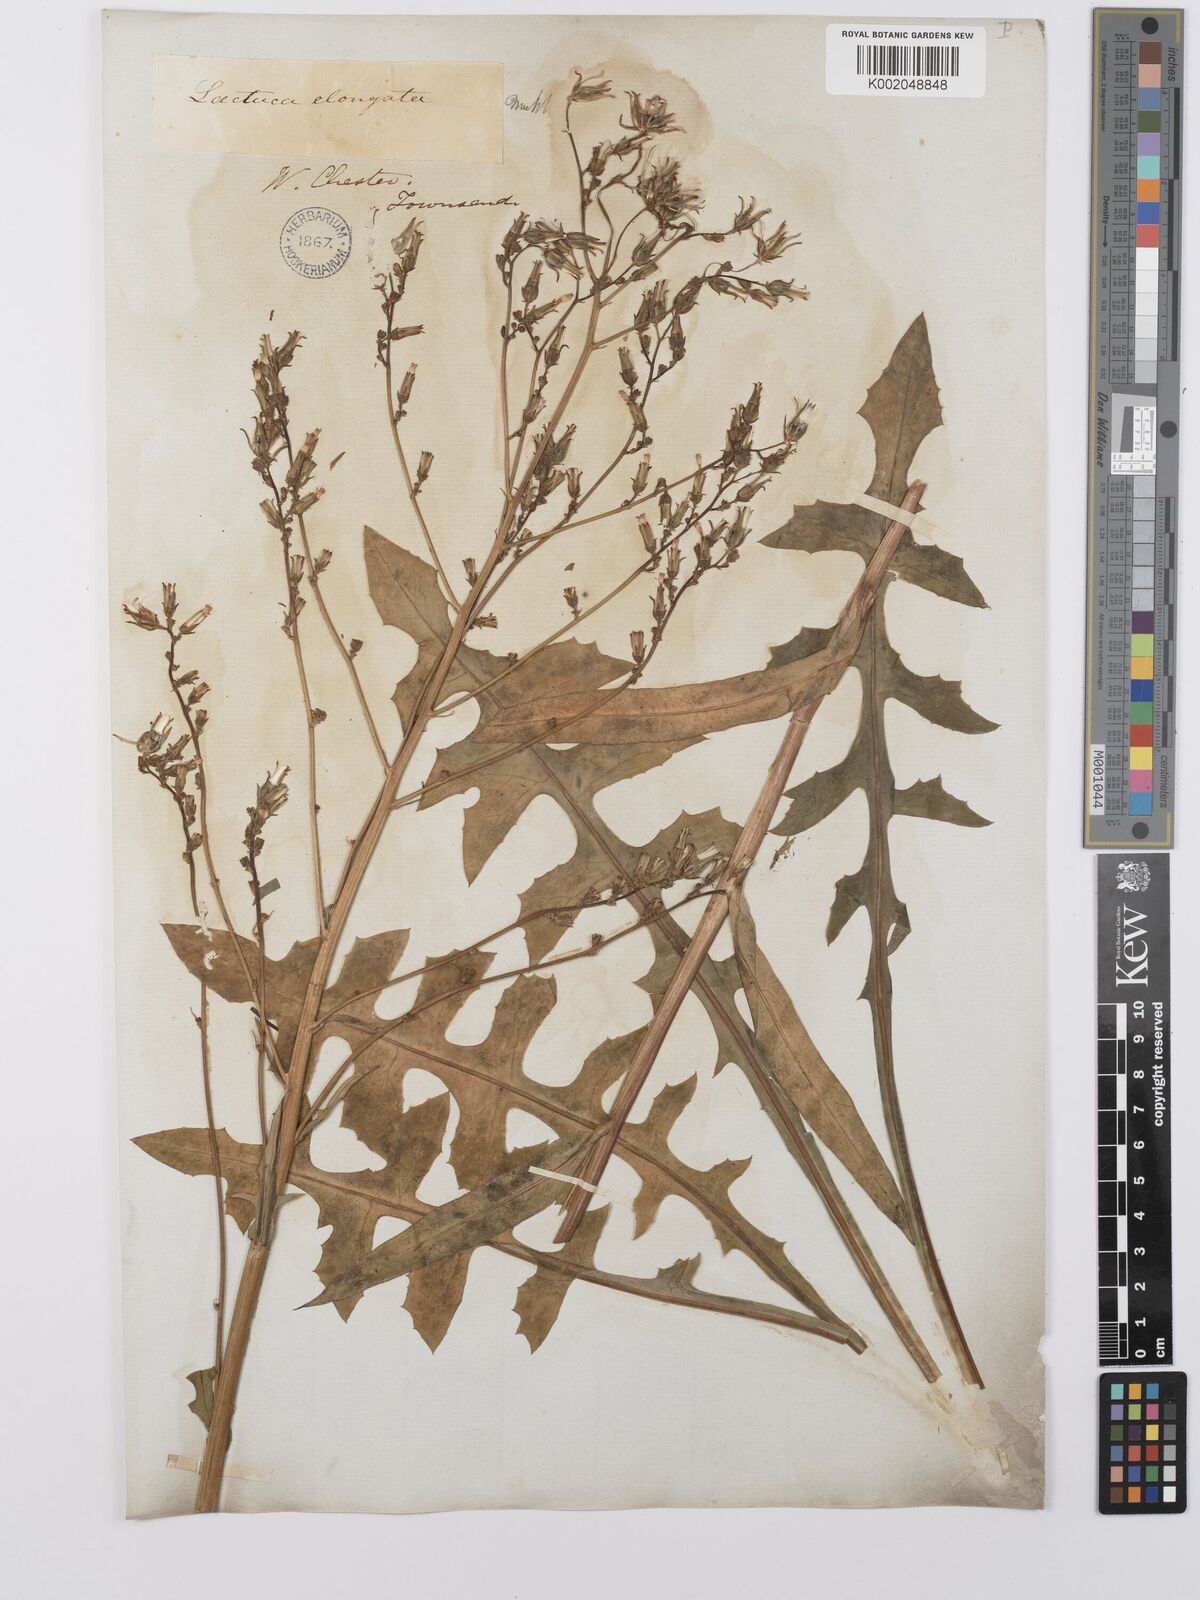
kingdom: Plantae
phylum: Tracheophyta
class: Magnoliopsida
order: Asterales
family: Asteraceae
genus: Lactuca
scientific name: Lactuca canadensis
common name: Canada lettuce
